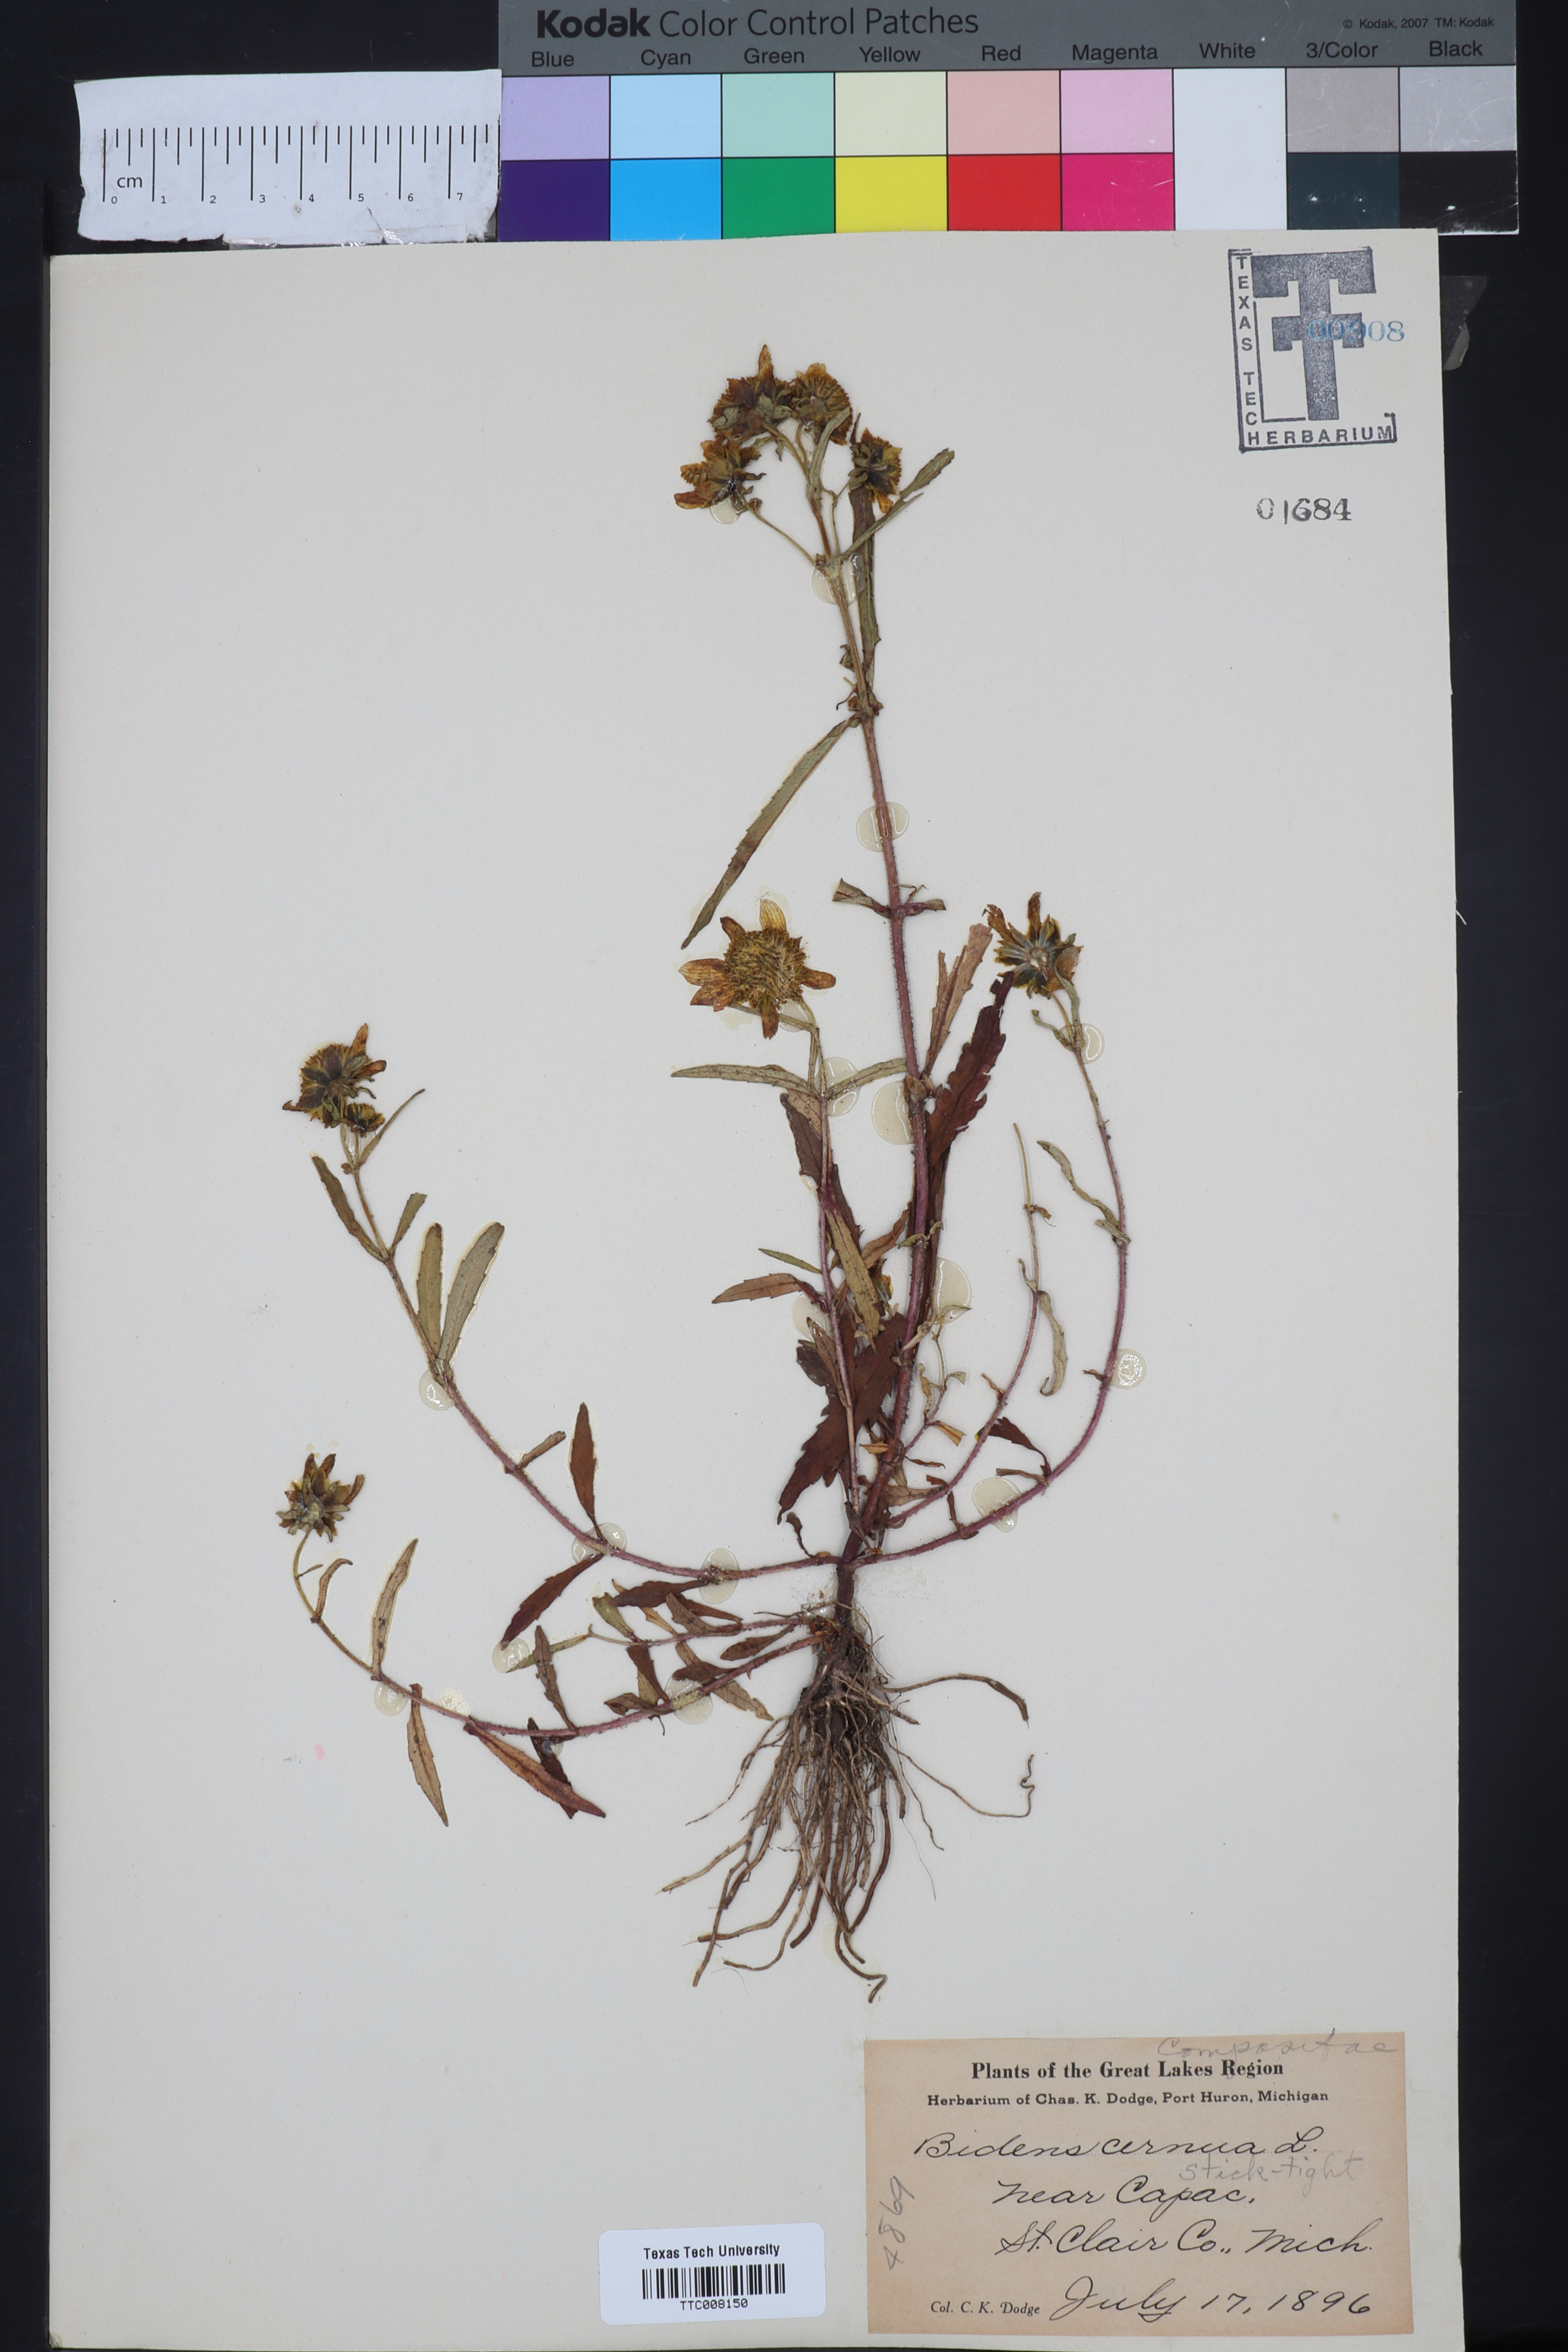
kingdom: Plantae
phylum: Tracheophyta
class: Magnoliopsida
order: Asterales
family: Asteraceae
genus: Bidens
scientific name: Bidens cernua
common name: Nodding bur-marigold
